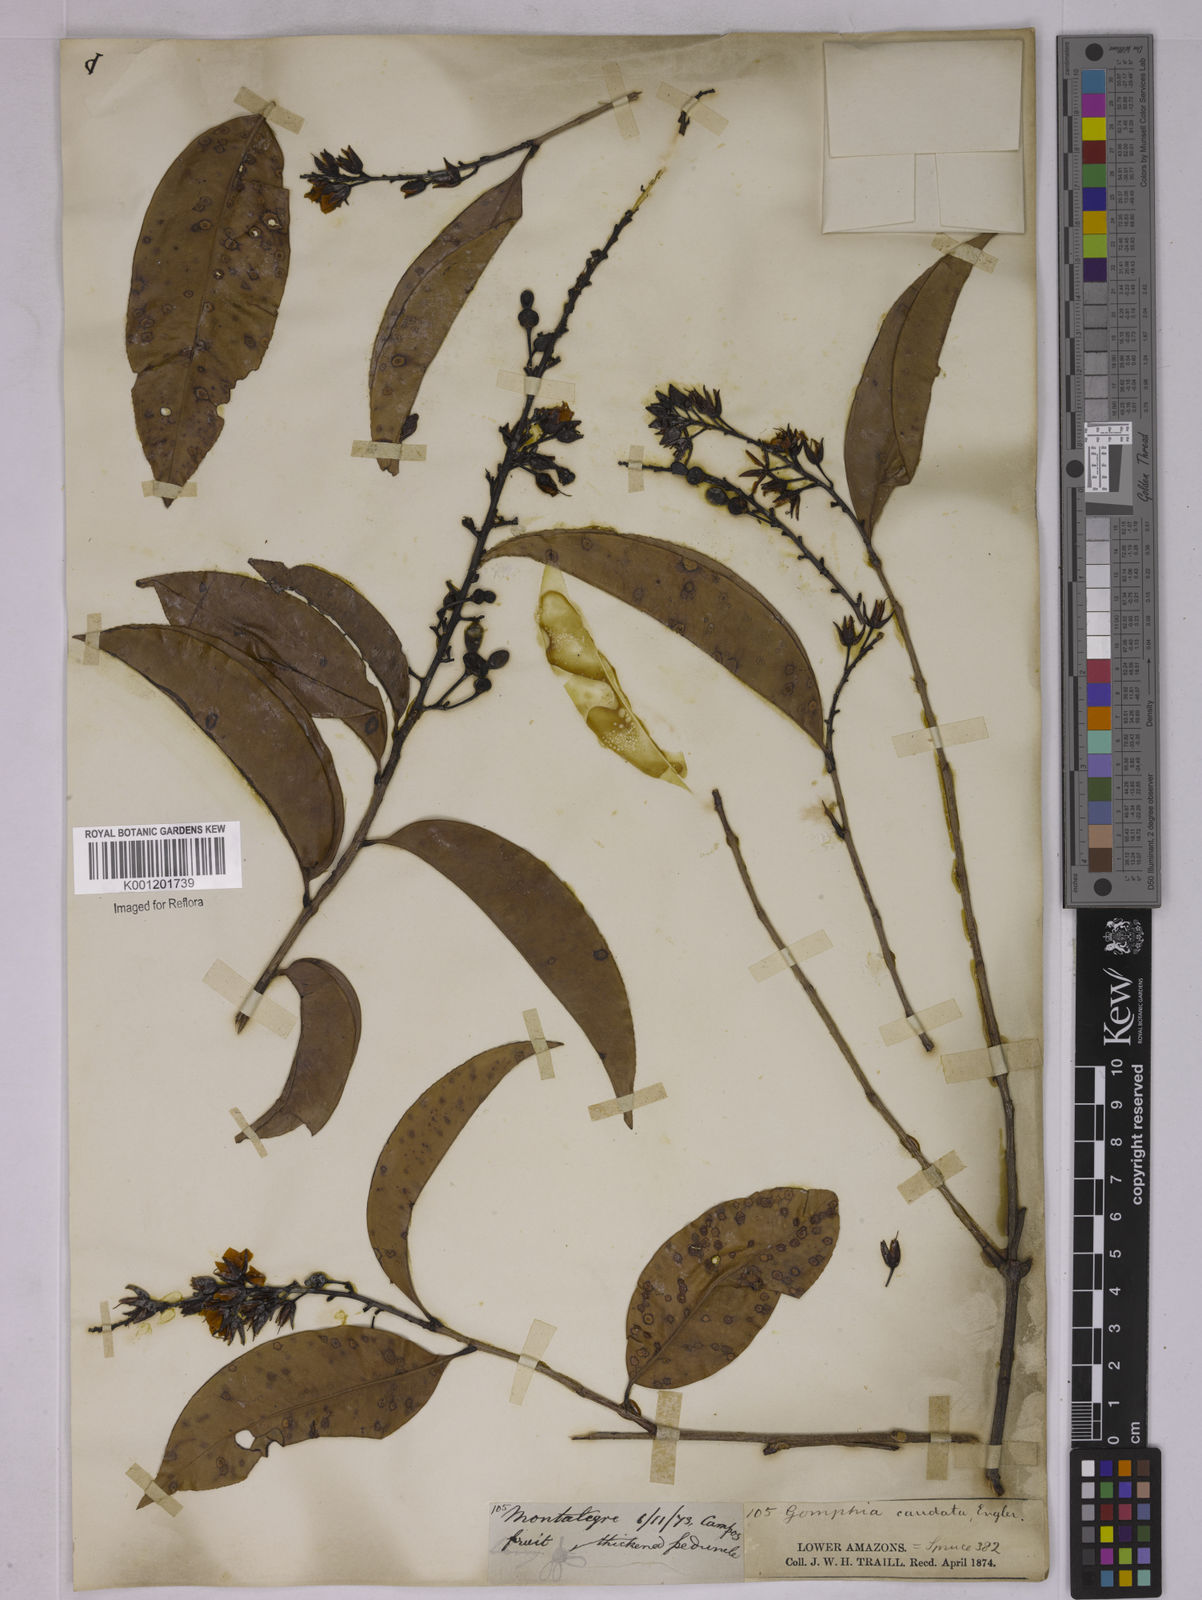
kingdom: Plantae
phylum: Tracheophyta
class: Magnoliopsida
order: Malpighiales
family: Ochnaceae
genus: Ouratea
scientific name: Ouratea caudata
